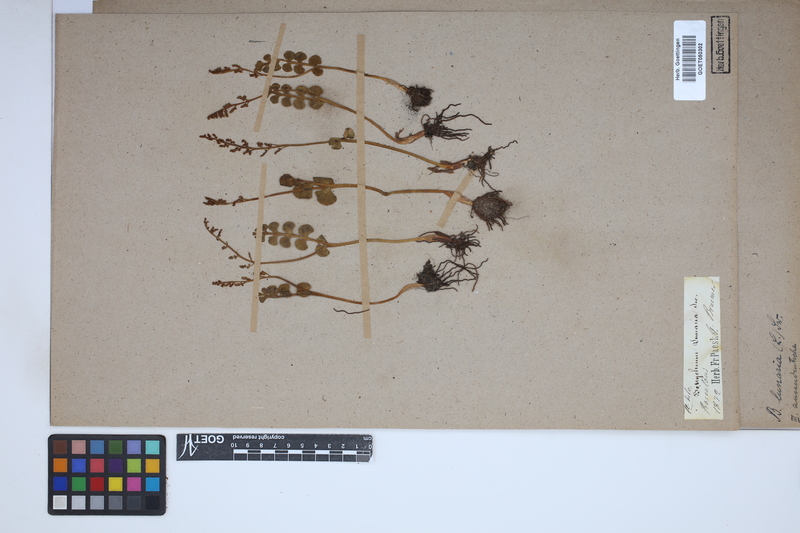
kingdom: Plantae
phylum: Tracheophyta
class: Polypodiopsida
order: Ophioglossales
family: Ophioglossaceae
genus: Botrychium
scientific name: Botrychium lunaria
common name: Moonwort
